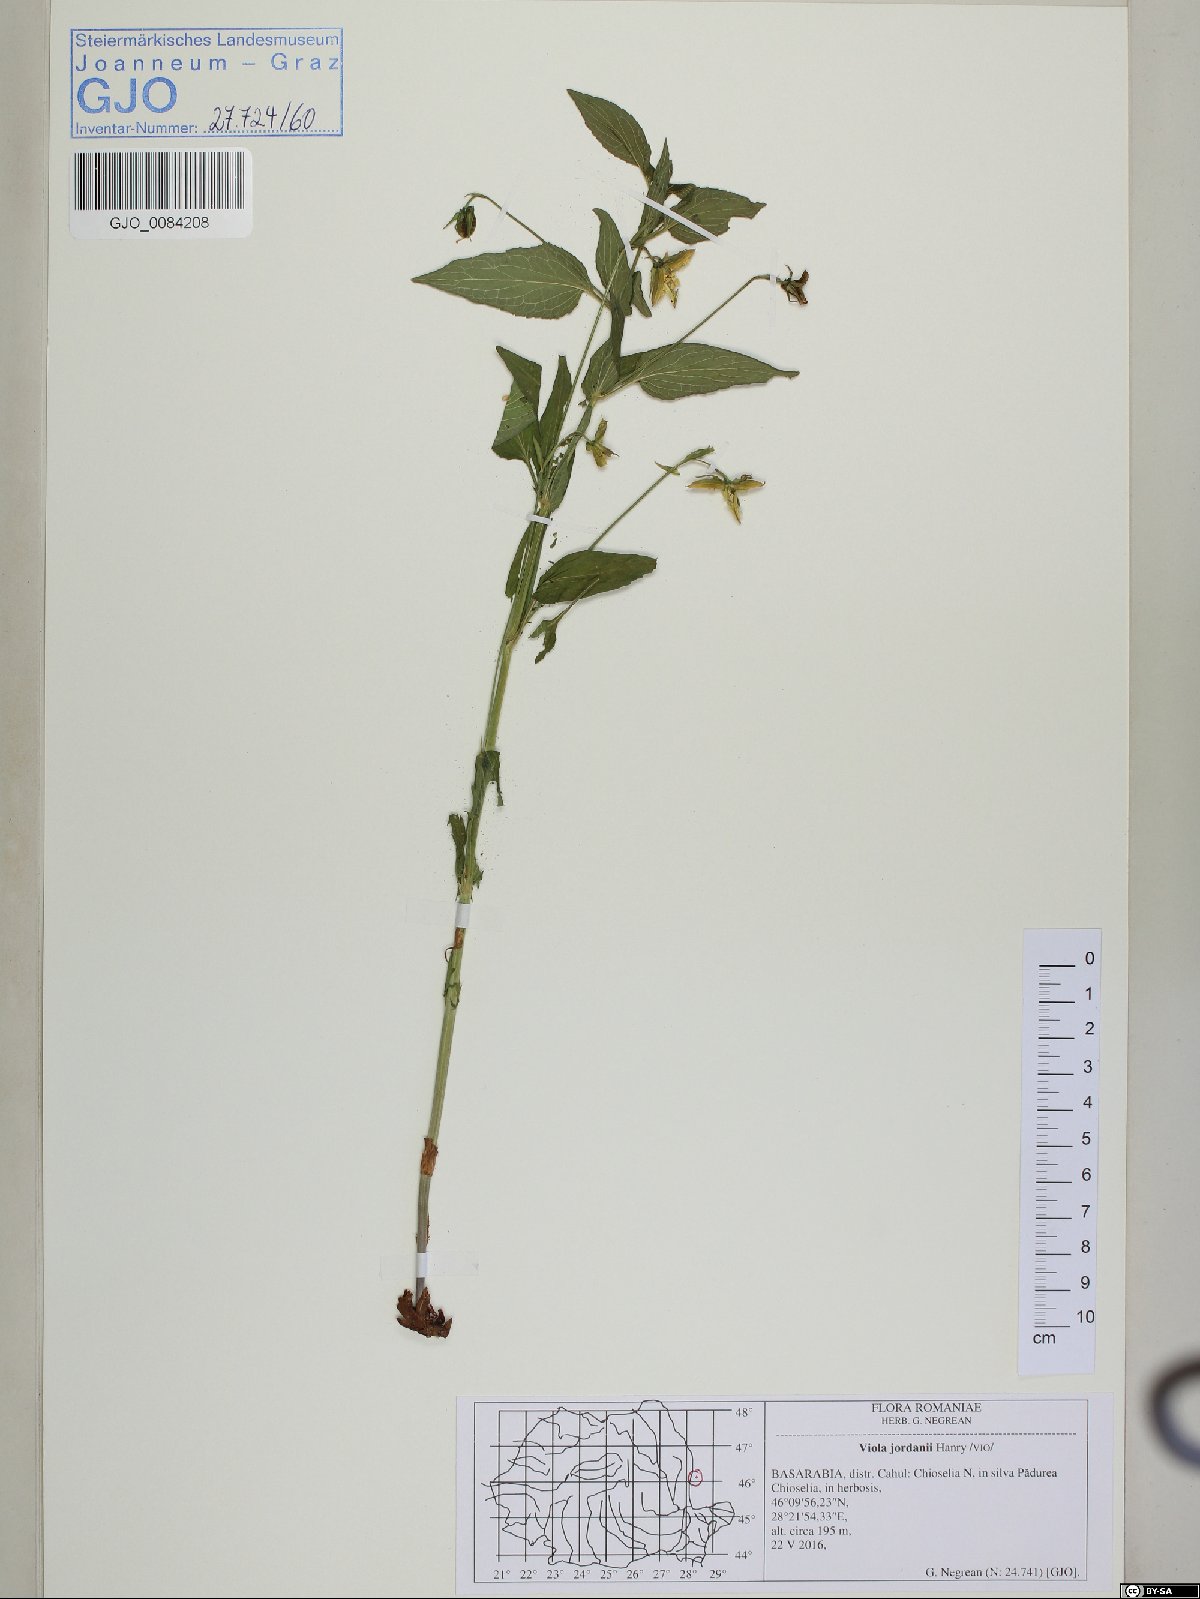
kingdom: Plantae
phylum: Tracheophyta
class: Magnoliopsida
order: Malpighiales
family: Violaceae
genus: Viola
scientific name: Viola jordanii
